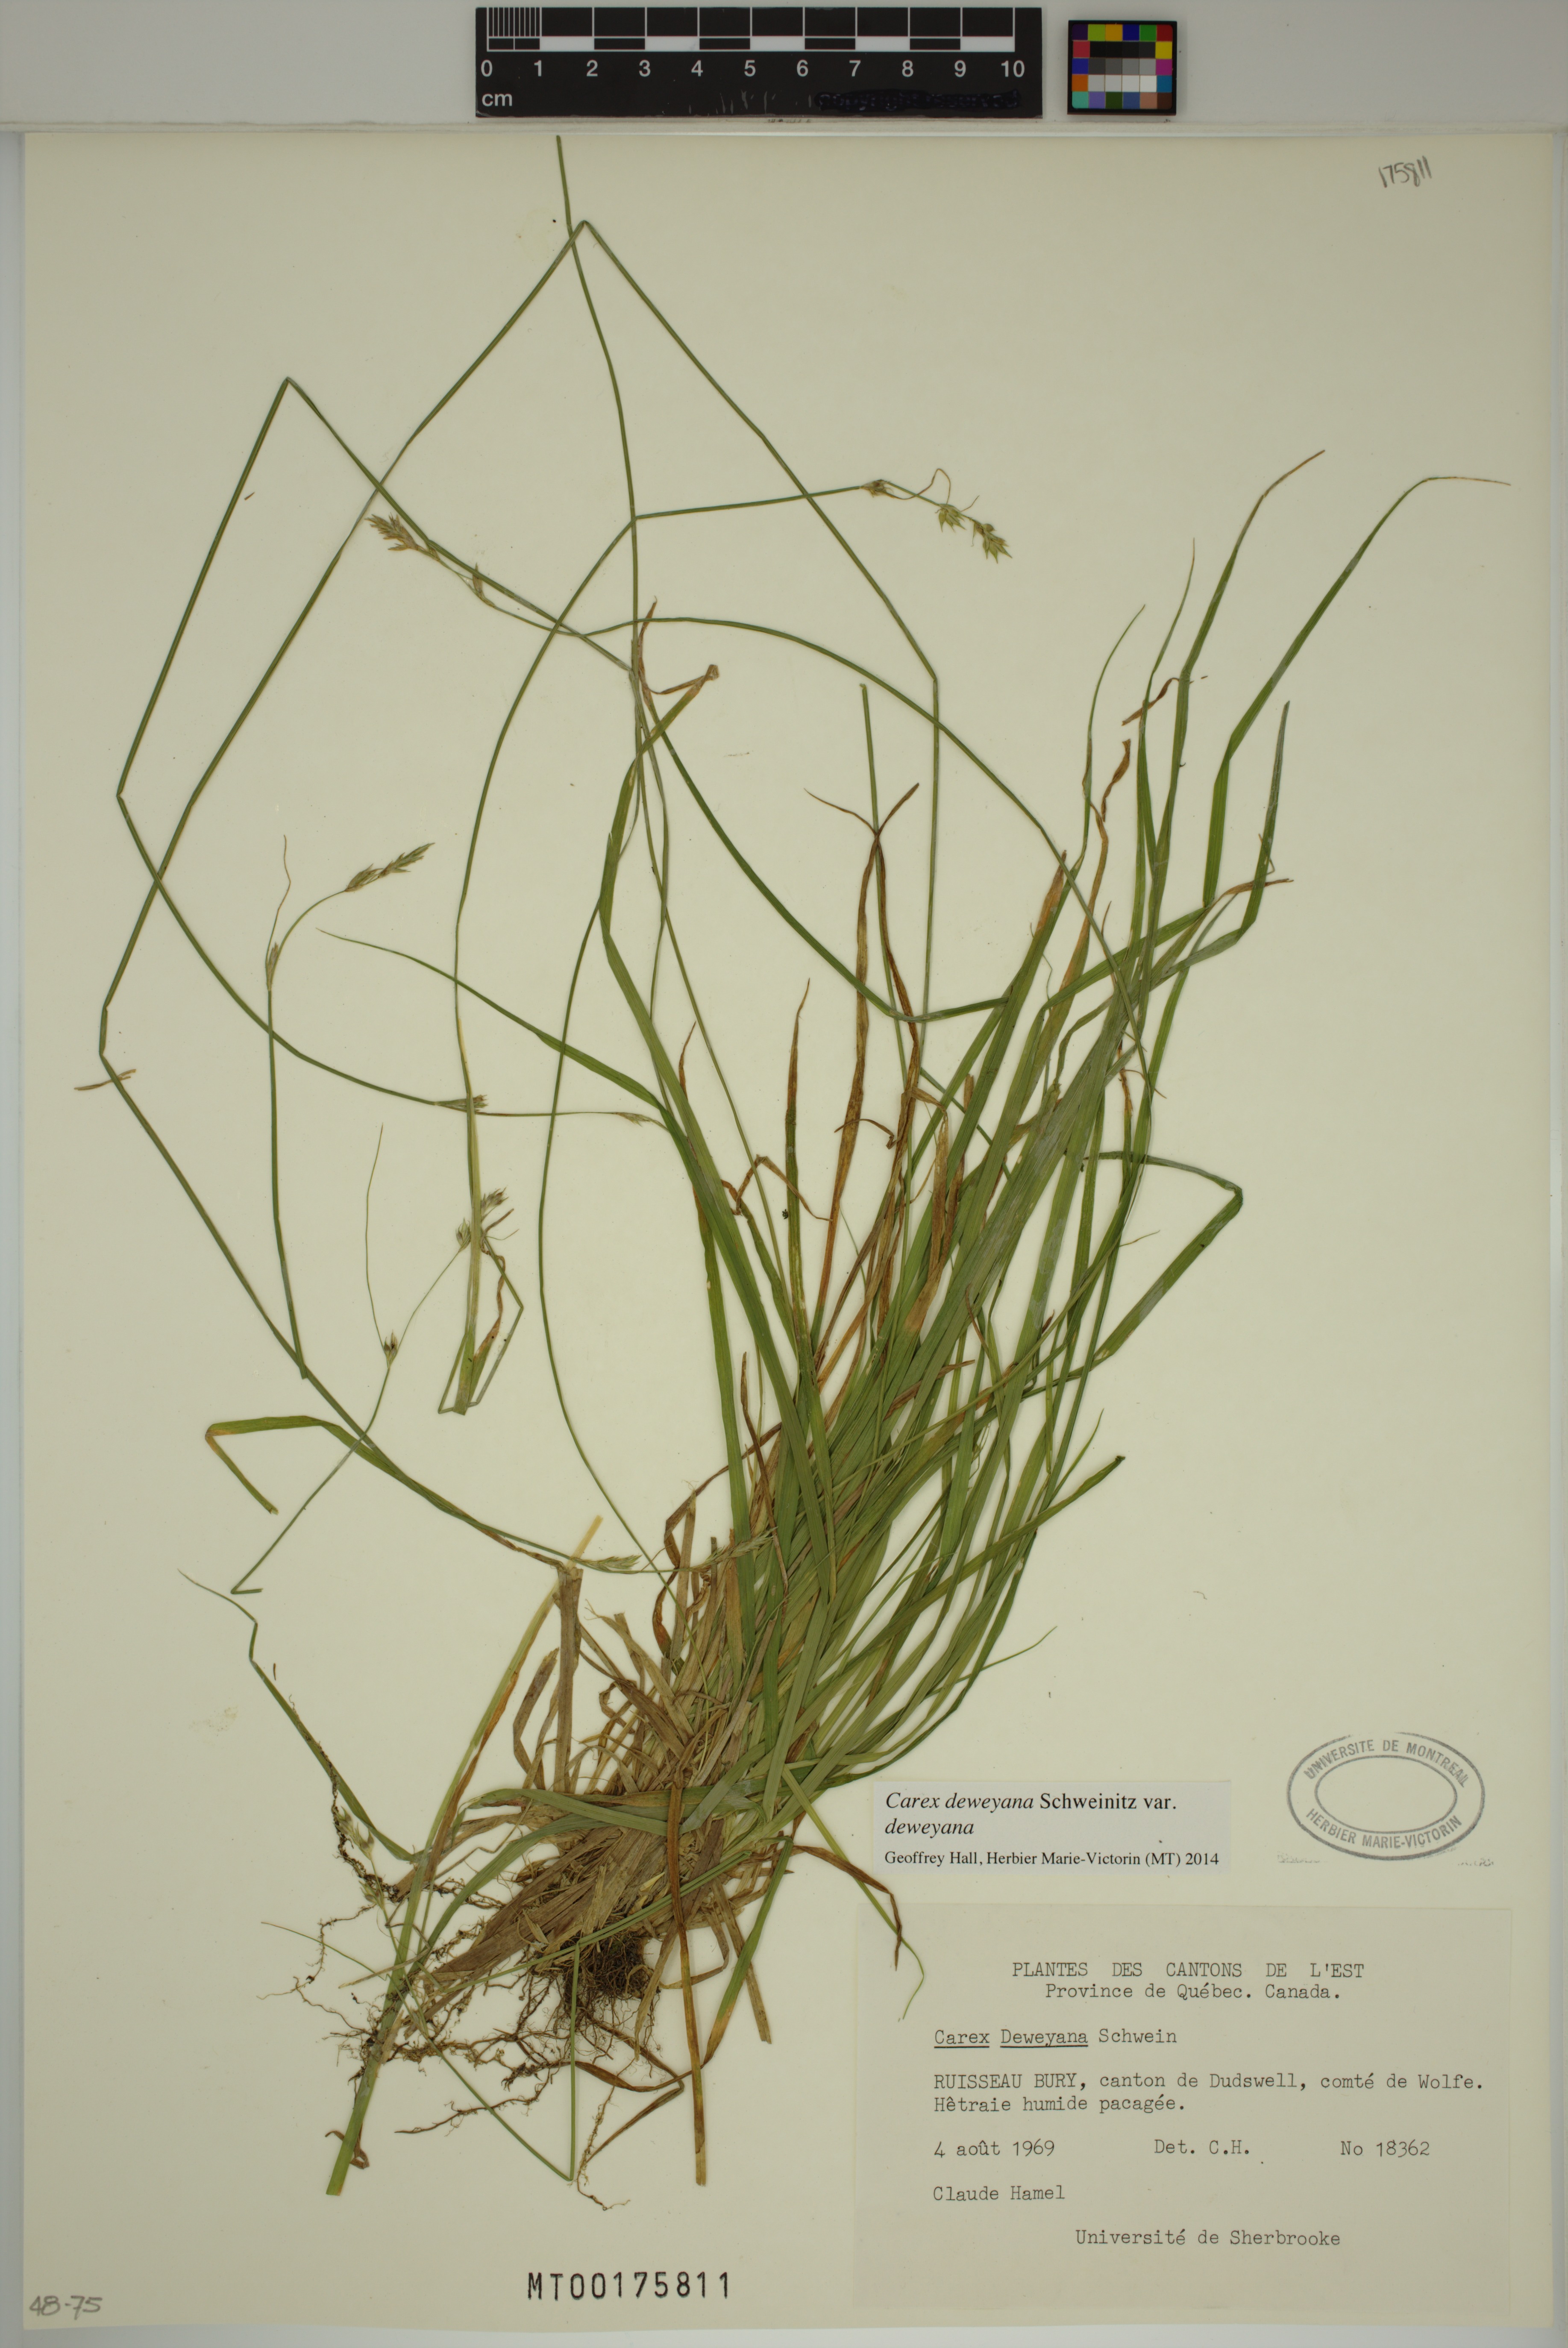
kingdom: Plantae
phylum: Tracheophyta
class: Liliopsida
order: Poales
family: Cyperaceae
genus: Carex
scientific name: Carex deweyana
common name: Dewey's sedge
